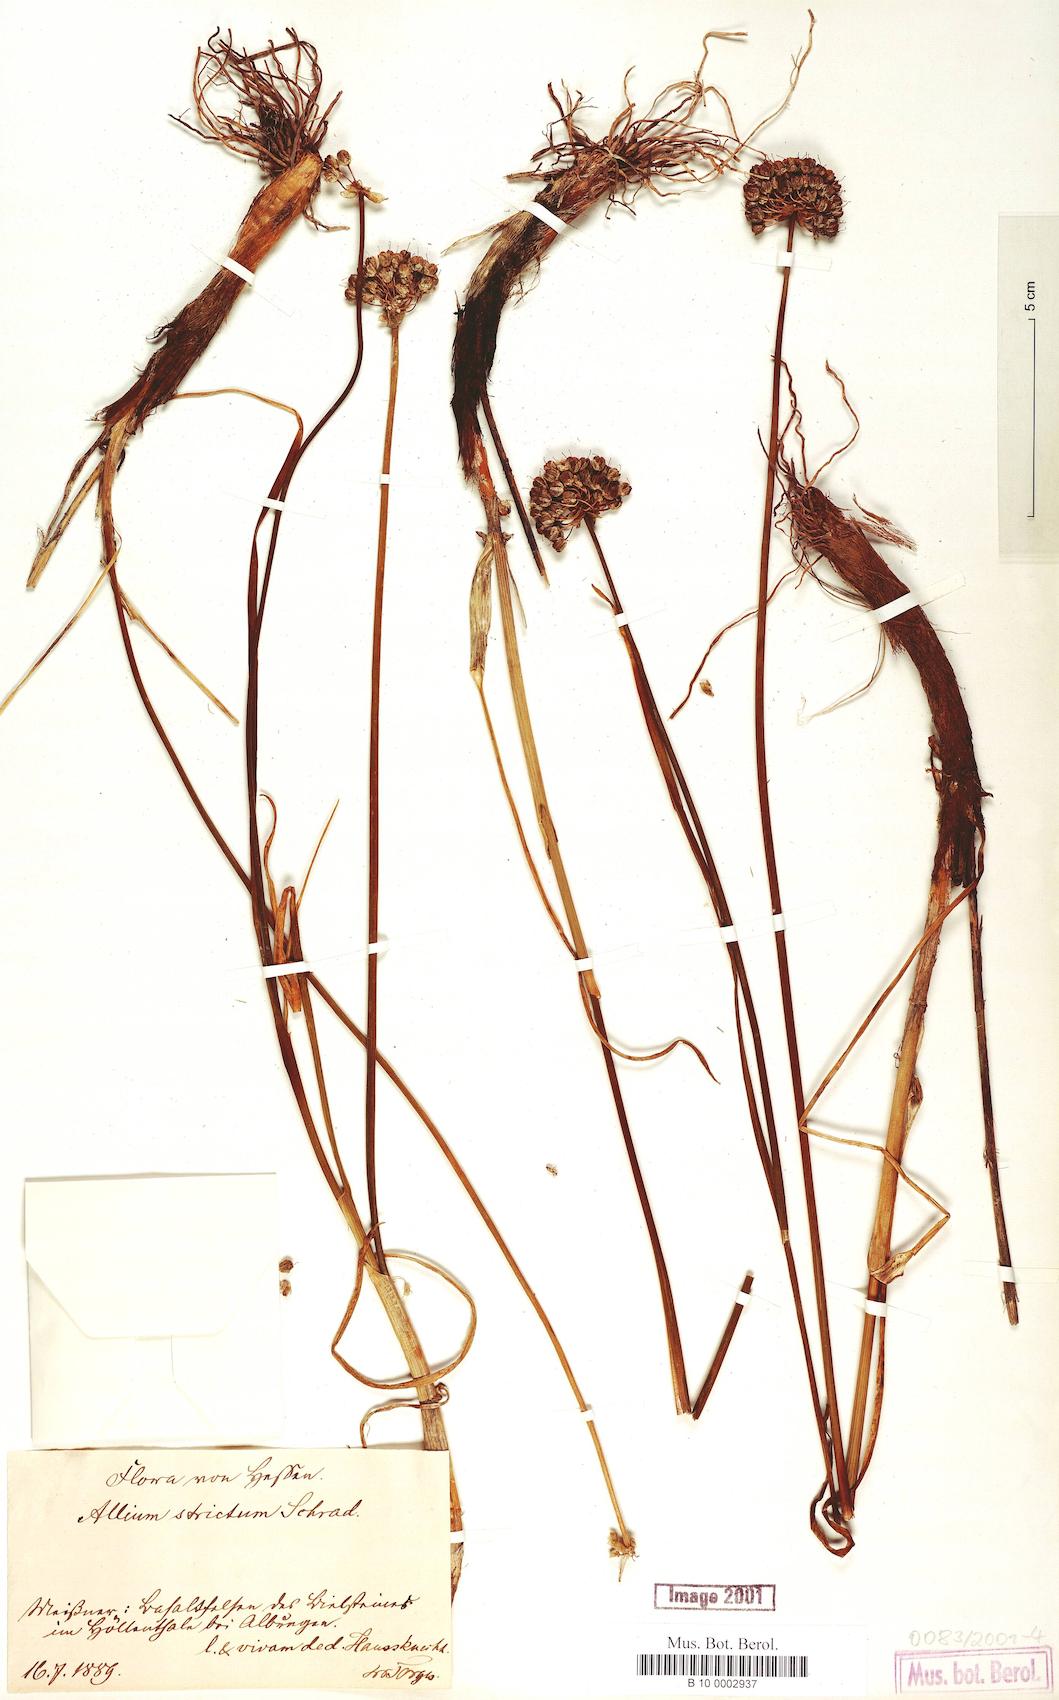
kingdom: Plantae
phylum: Tracheophyta
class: Liliopsida
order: Asparagales
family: Amaryllidaceae
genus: Allium
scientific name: Allium strictum
